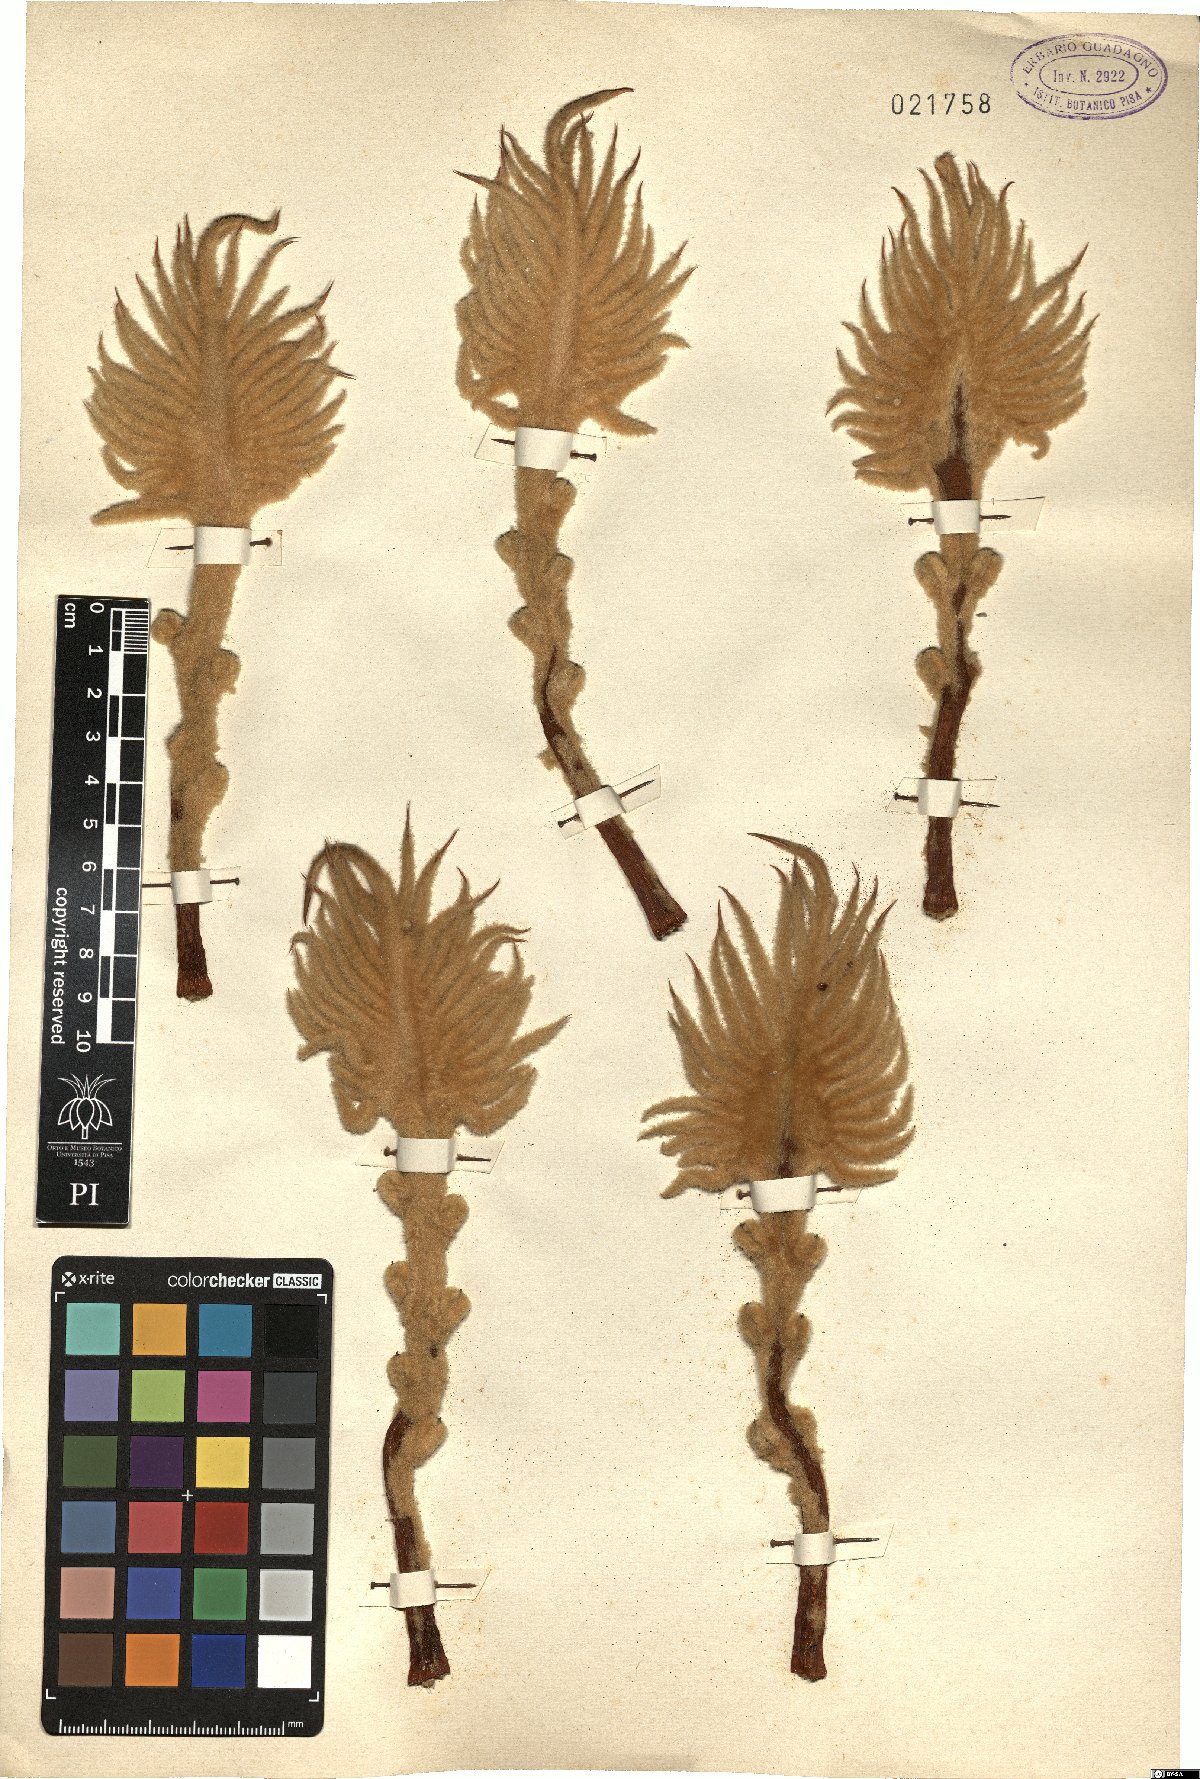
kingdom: Plantae
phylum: Tracheophyta
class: Cycadopsida
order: Cycadales
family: Cycadaceae
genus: Cycas
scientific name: Cycas
